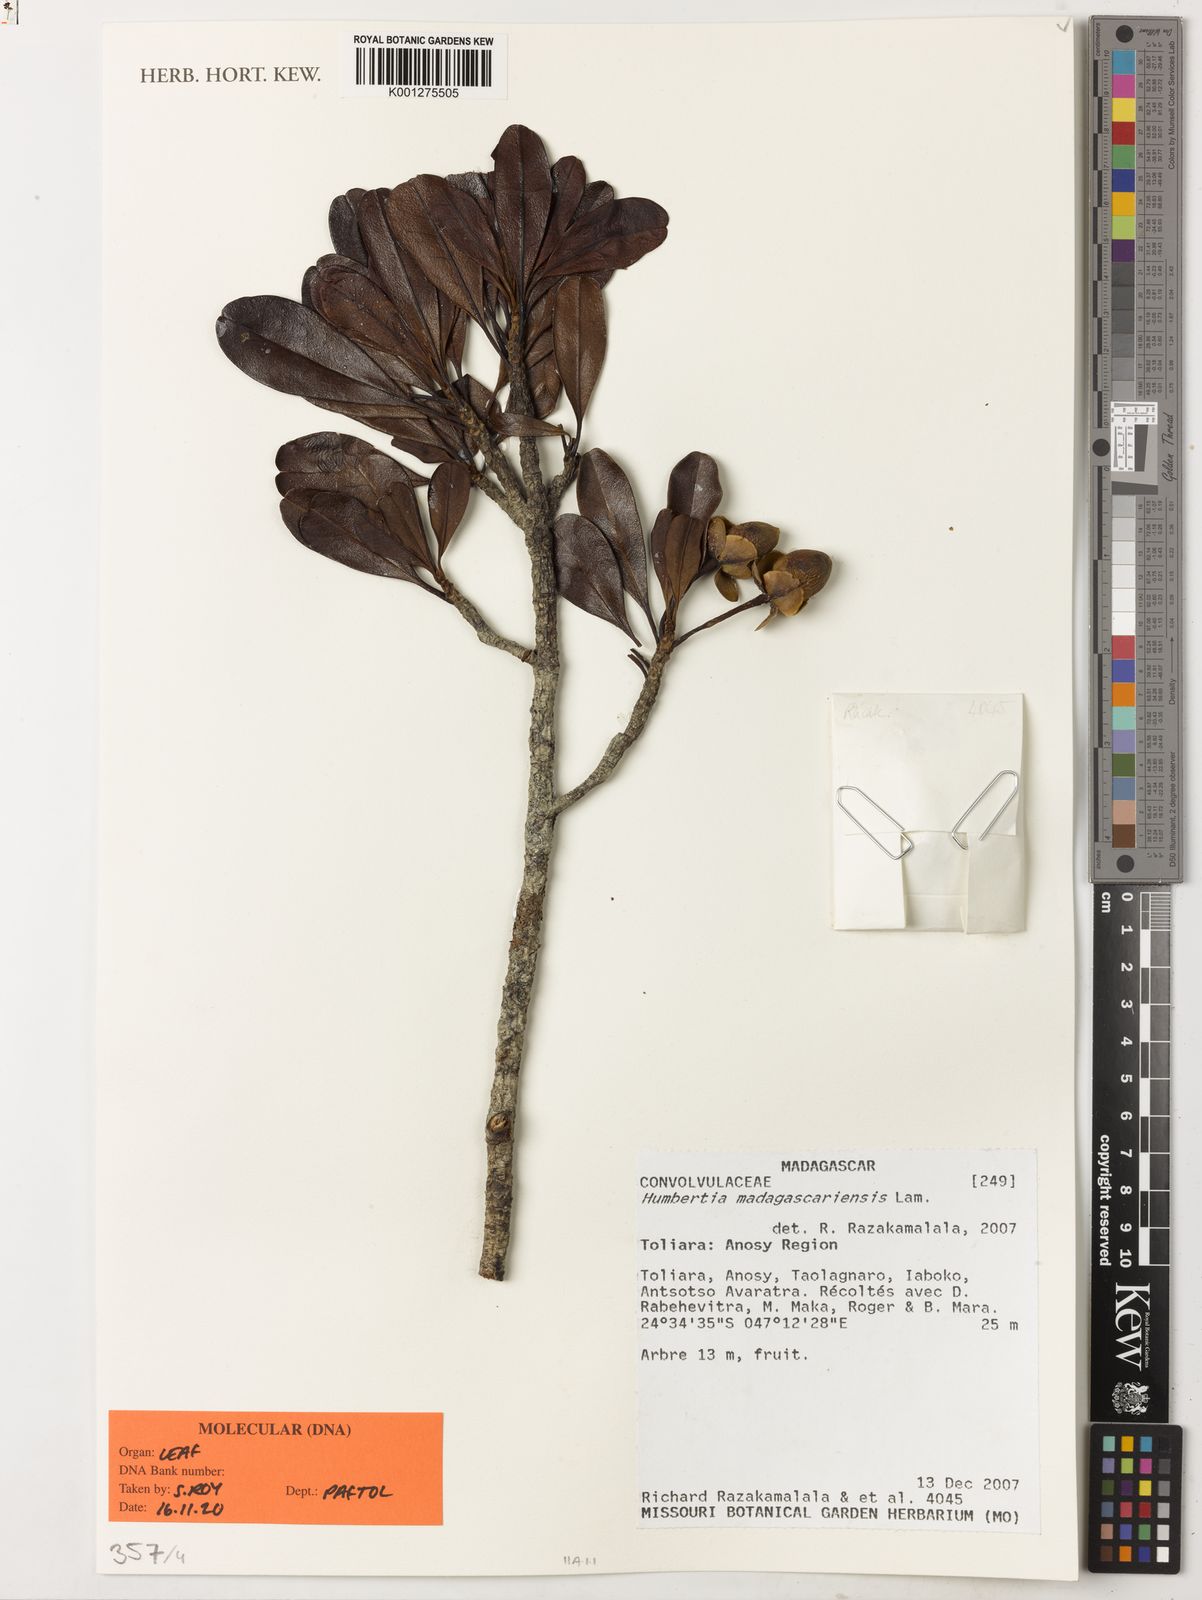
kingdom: Plantae
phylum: Tracheophyta
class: Magnoliopsida
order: Solanales
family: Convolvulaceae
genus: Humbertia
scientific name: Humbertia madagascariensis
